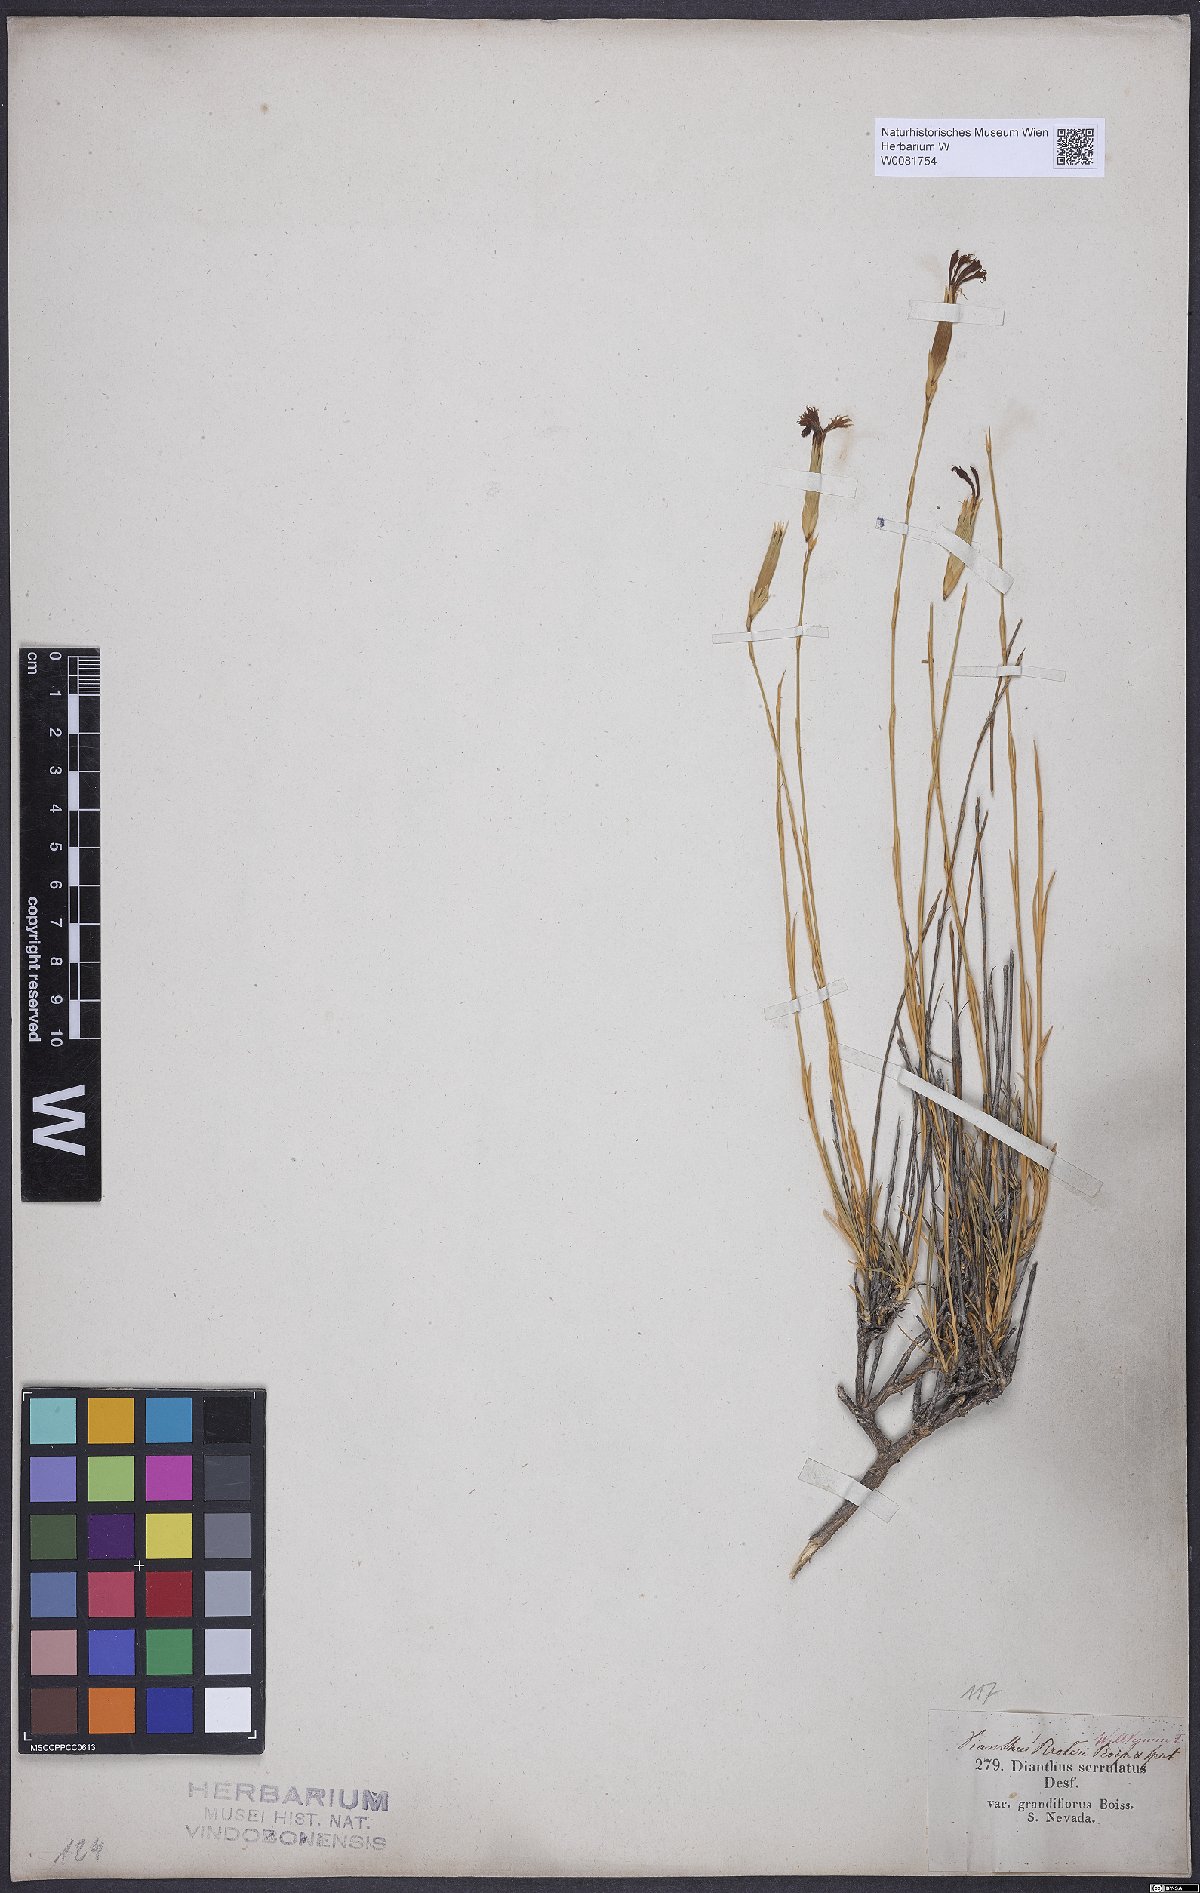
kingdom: Plantae
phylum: Tracheophyta
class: Magnoliopsida
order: Caryophyllales
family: Caryophyllaceae
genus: Dianthus
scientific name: Dianthus broteri
